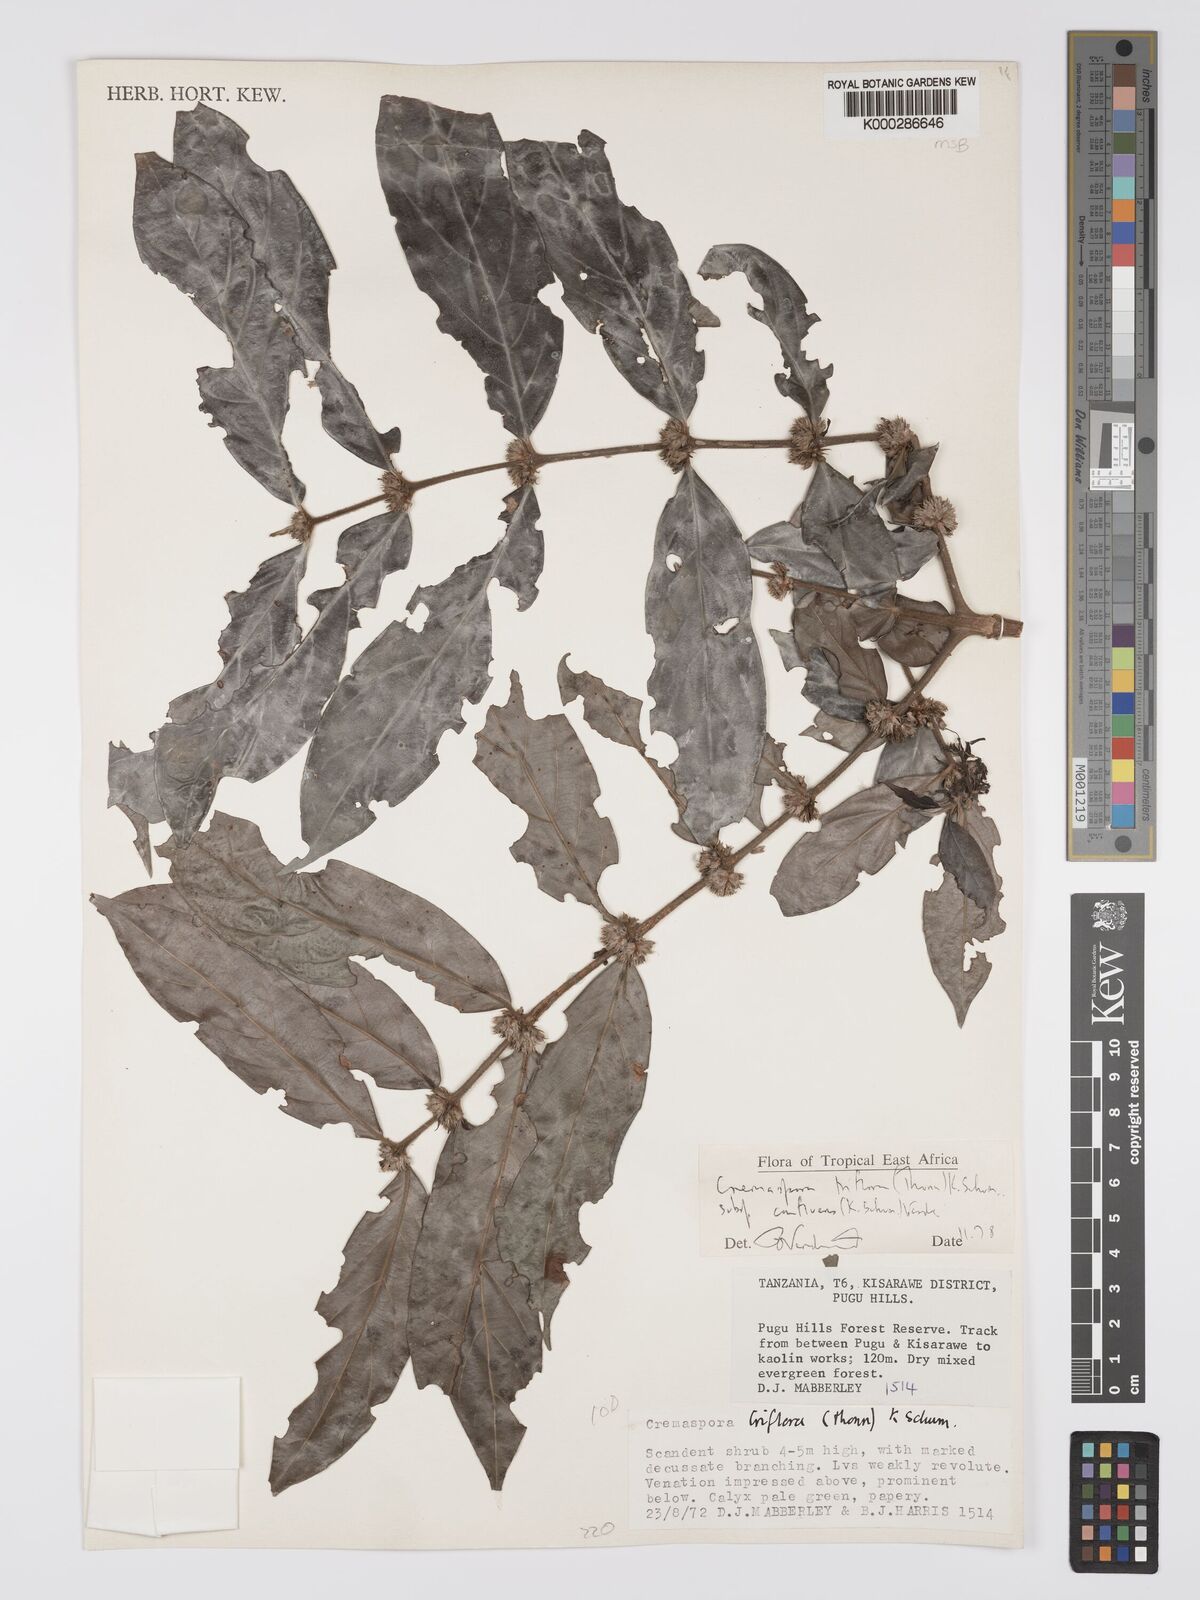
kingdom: Plantae
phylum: Tracheophyta
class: Magnoliopsida
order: Gentianales
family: Rubiaceae
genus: Cremaspora
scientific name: Cremaspora triflora
